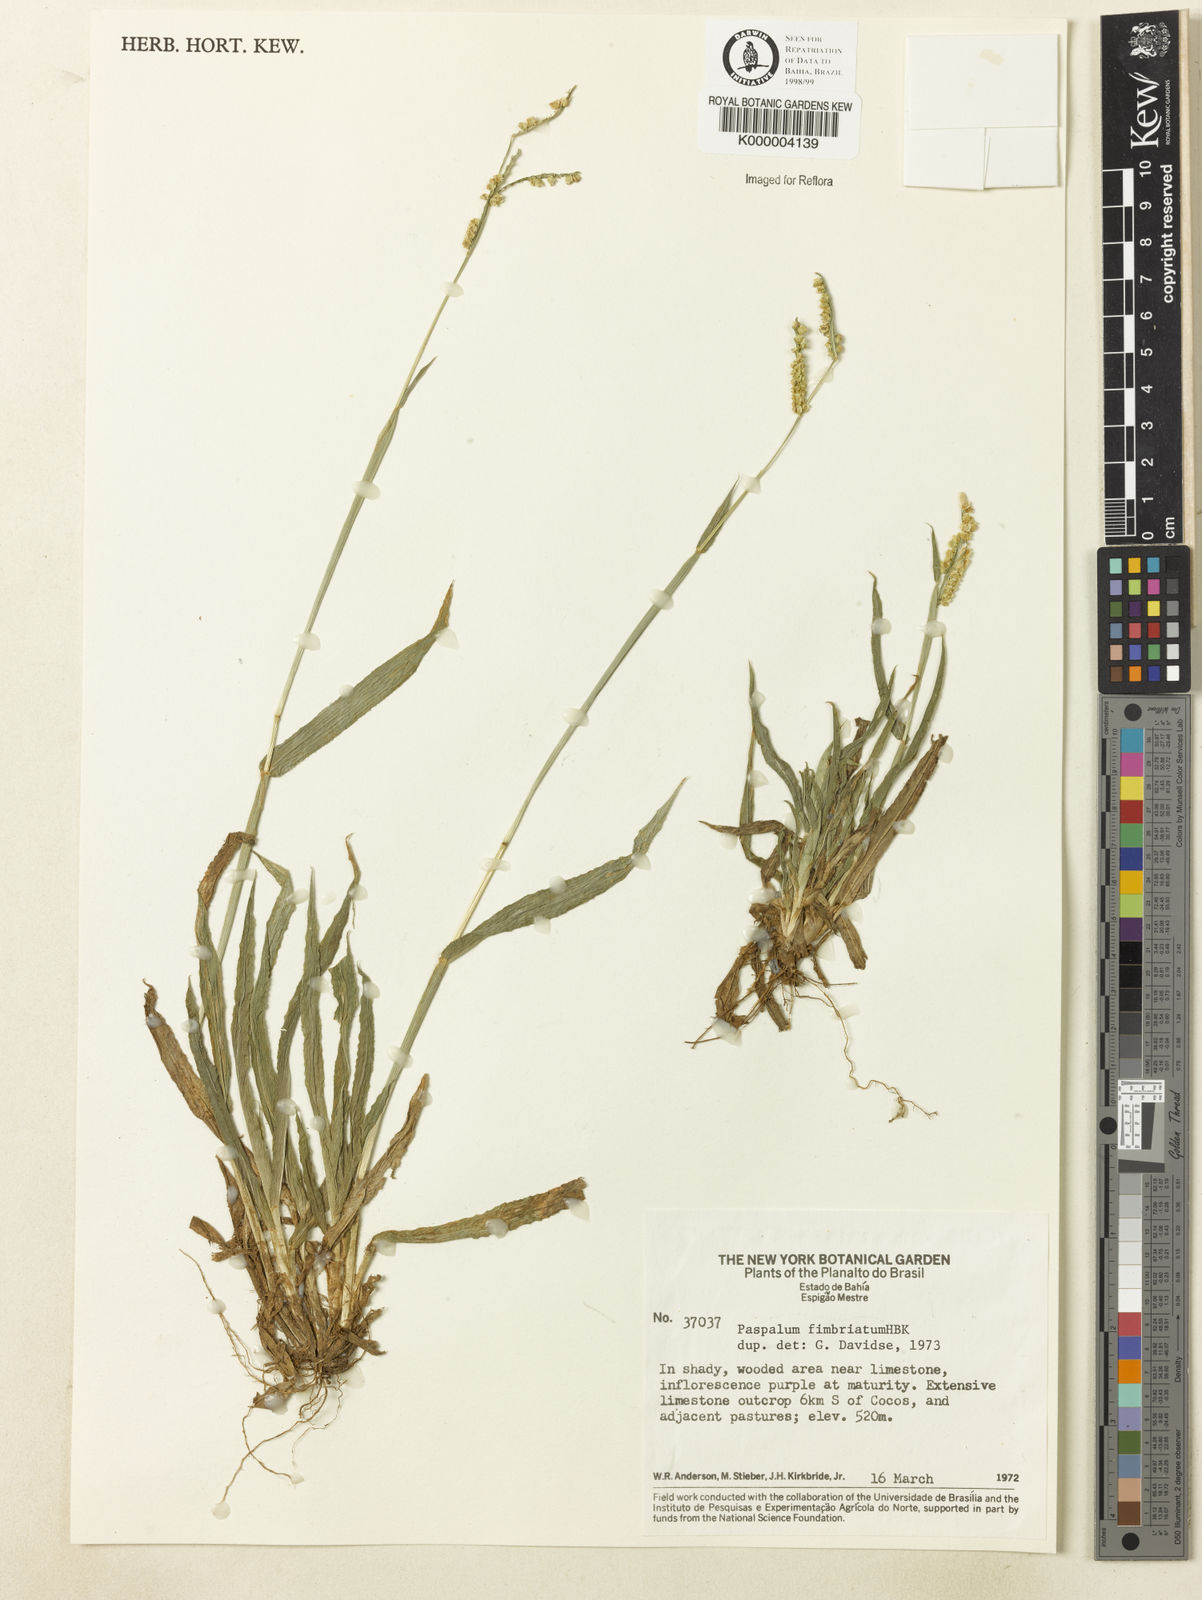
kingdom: Plantae
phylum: Tracheophyta
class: Liliopsida
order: Poales
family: Poaceae
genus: Paspalum
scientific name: Paspalum fimbriatum
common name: Panama crowngrass
